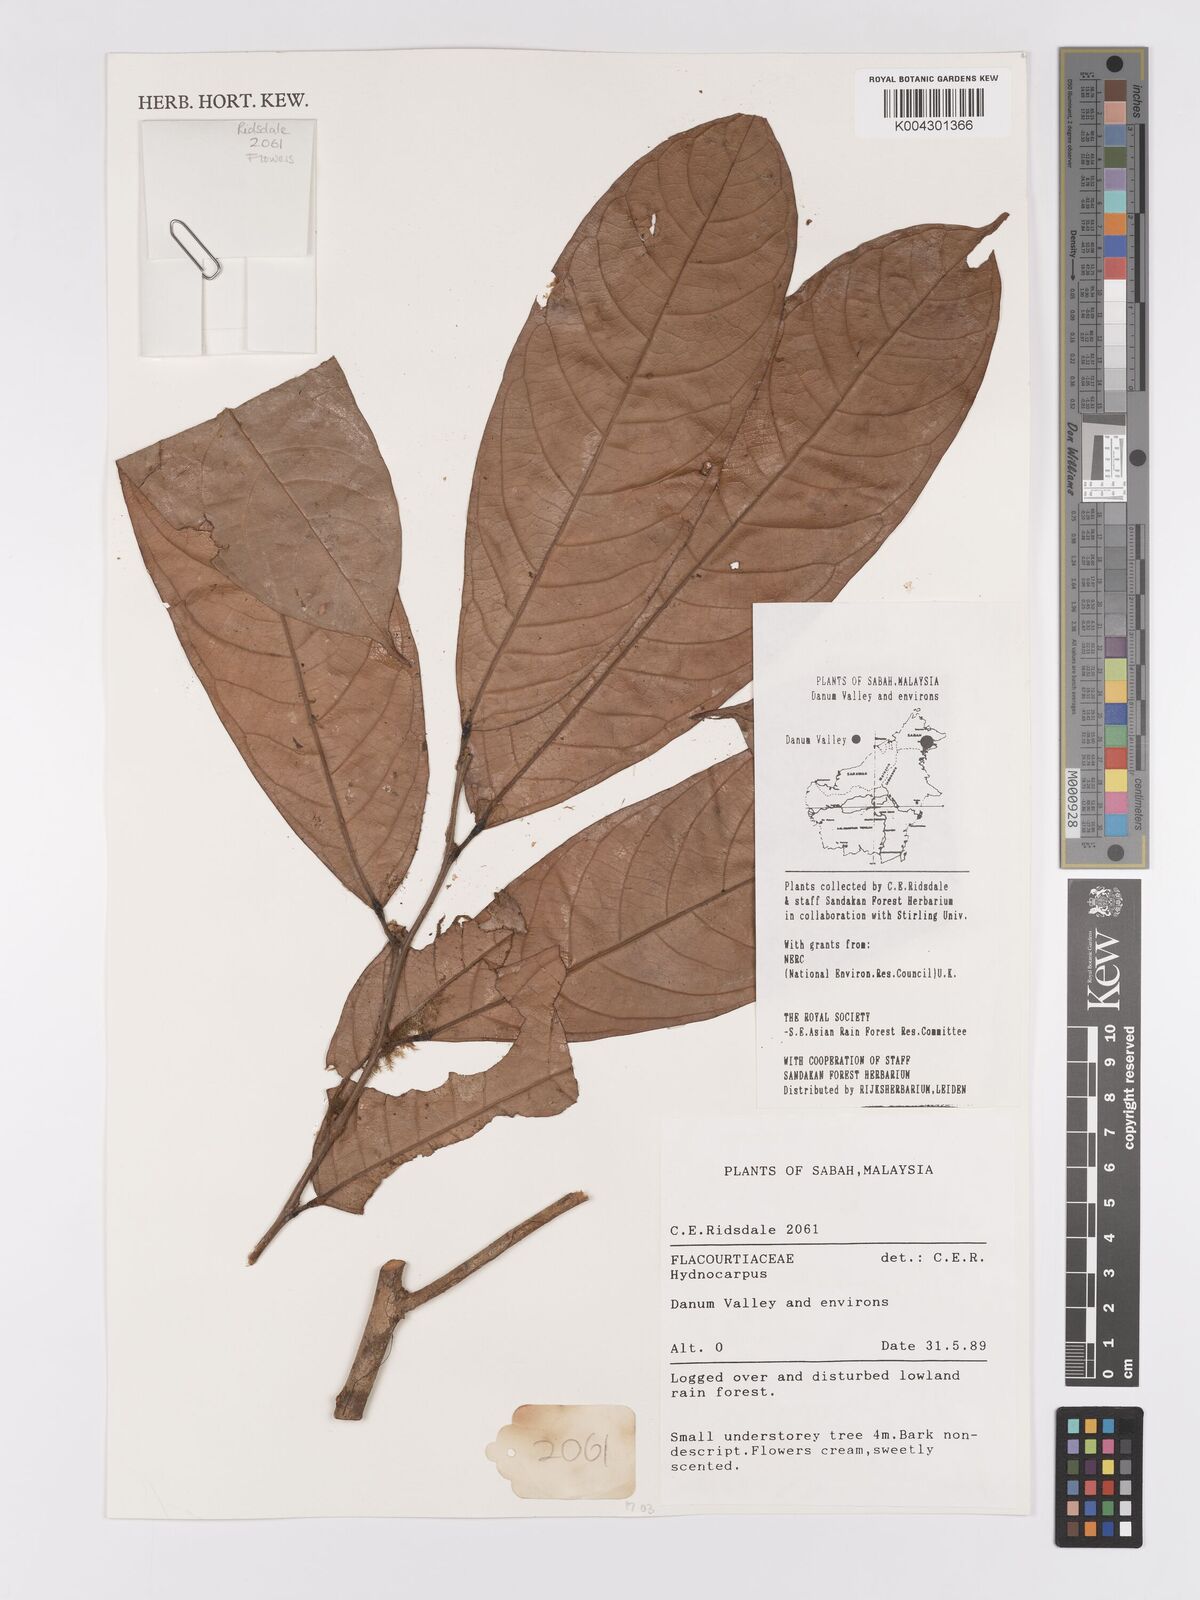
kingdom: Plantae
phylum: Tracheophyta
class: Magnoliopsida
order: Malpighiales
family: Achariaceae
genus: Hydnocarpus
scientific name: Hydnocarpus
